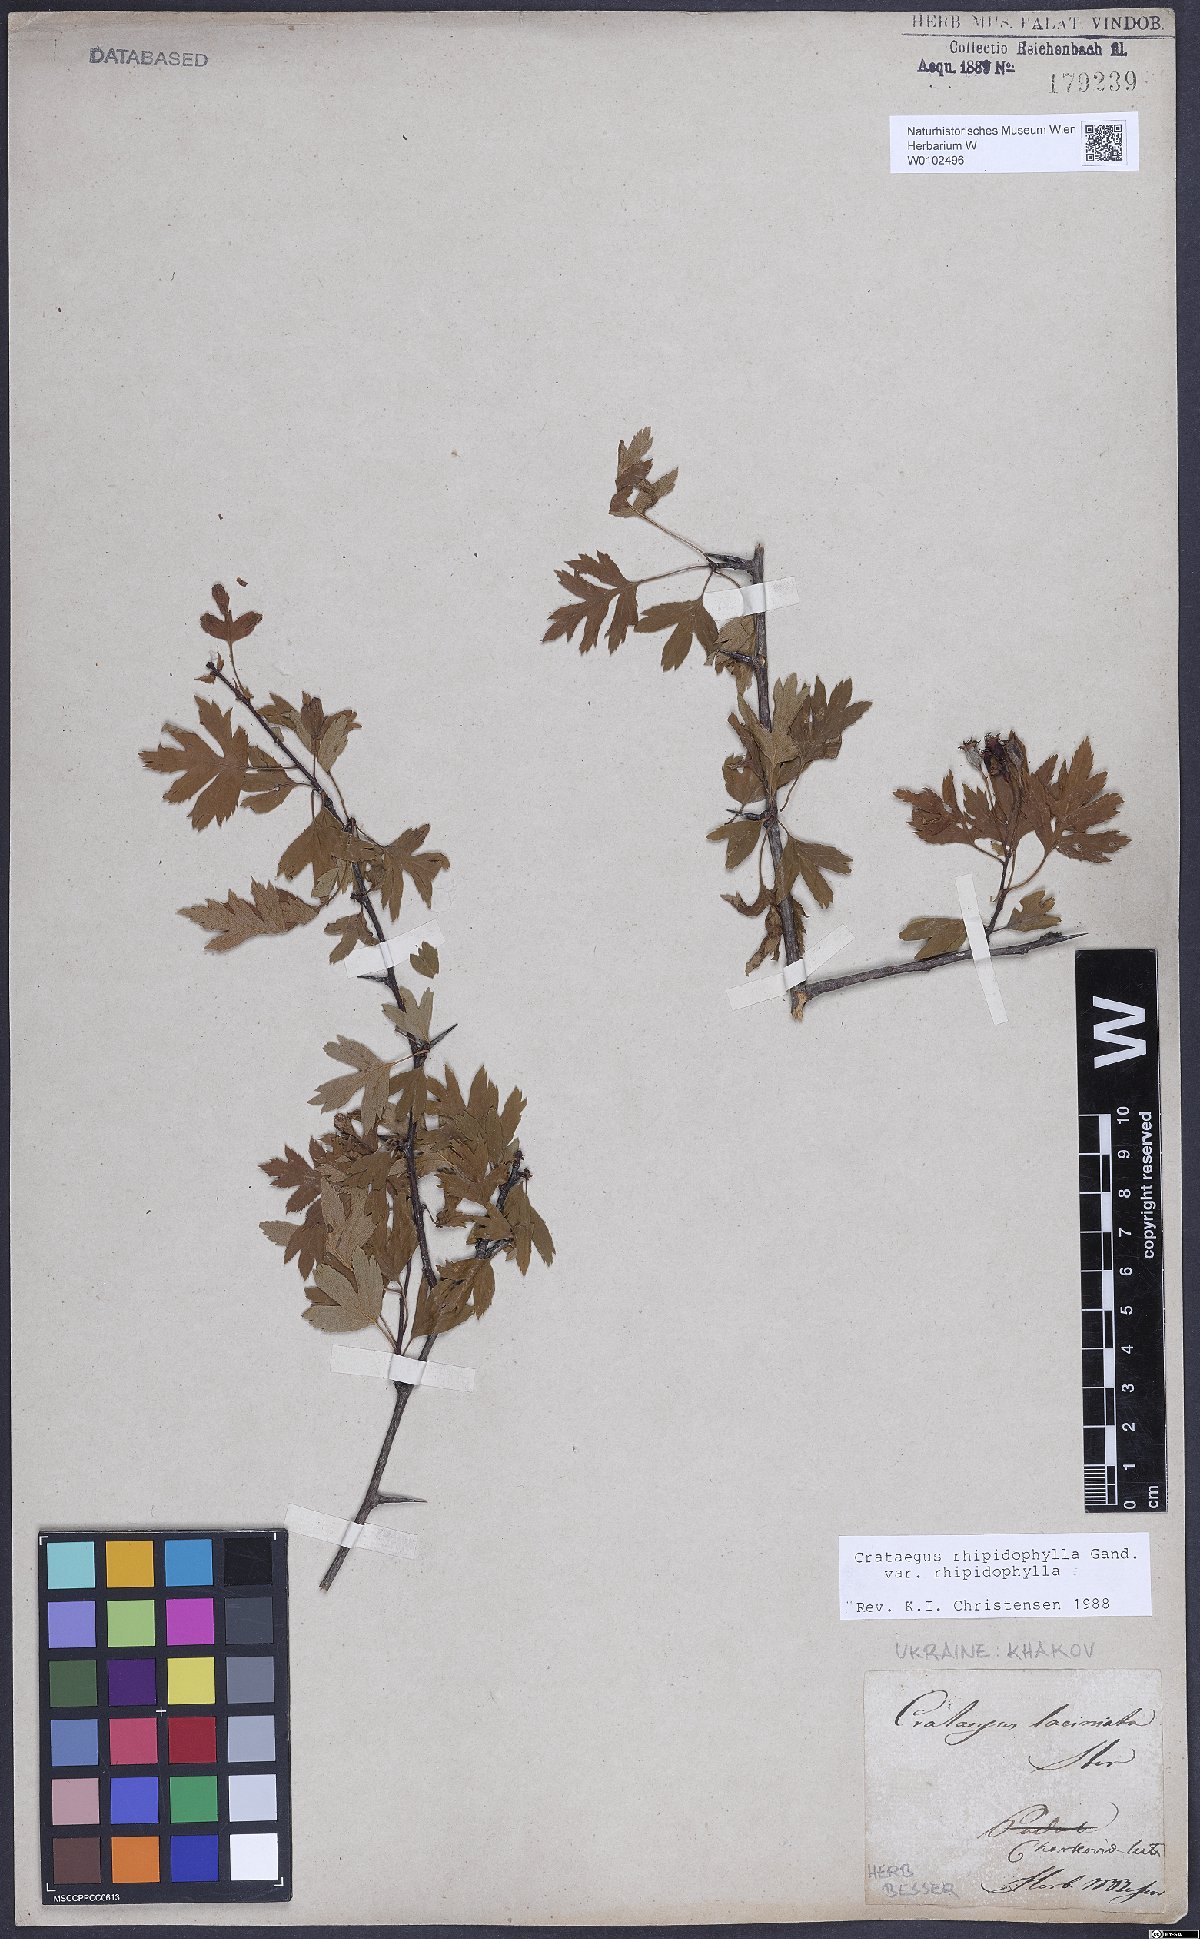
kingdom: Plantae
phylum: Tracheophyta
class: Magnoliopsida
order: Rosales
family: Rosaceae
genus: Crataegus
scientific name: Crataegus rhipidophylla
